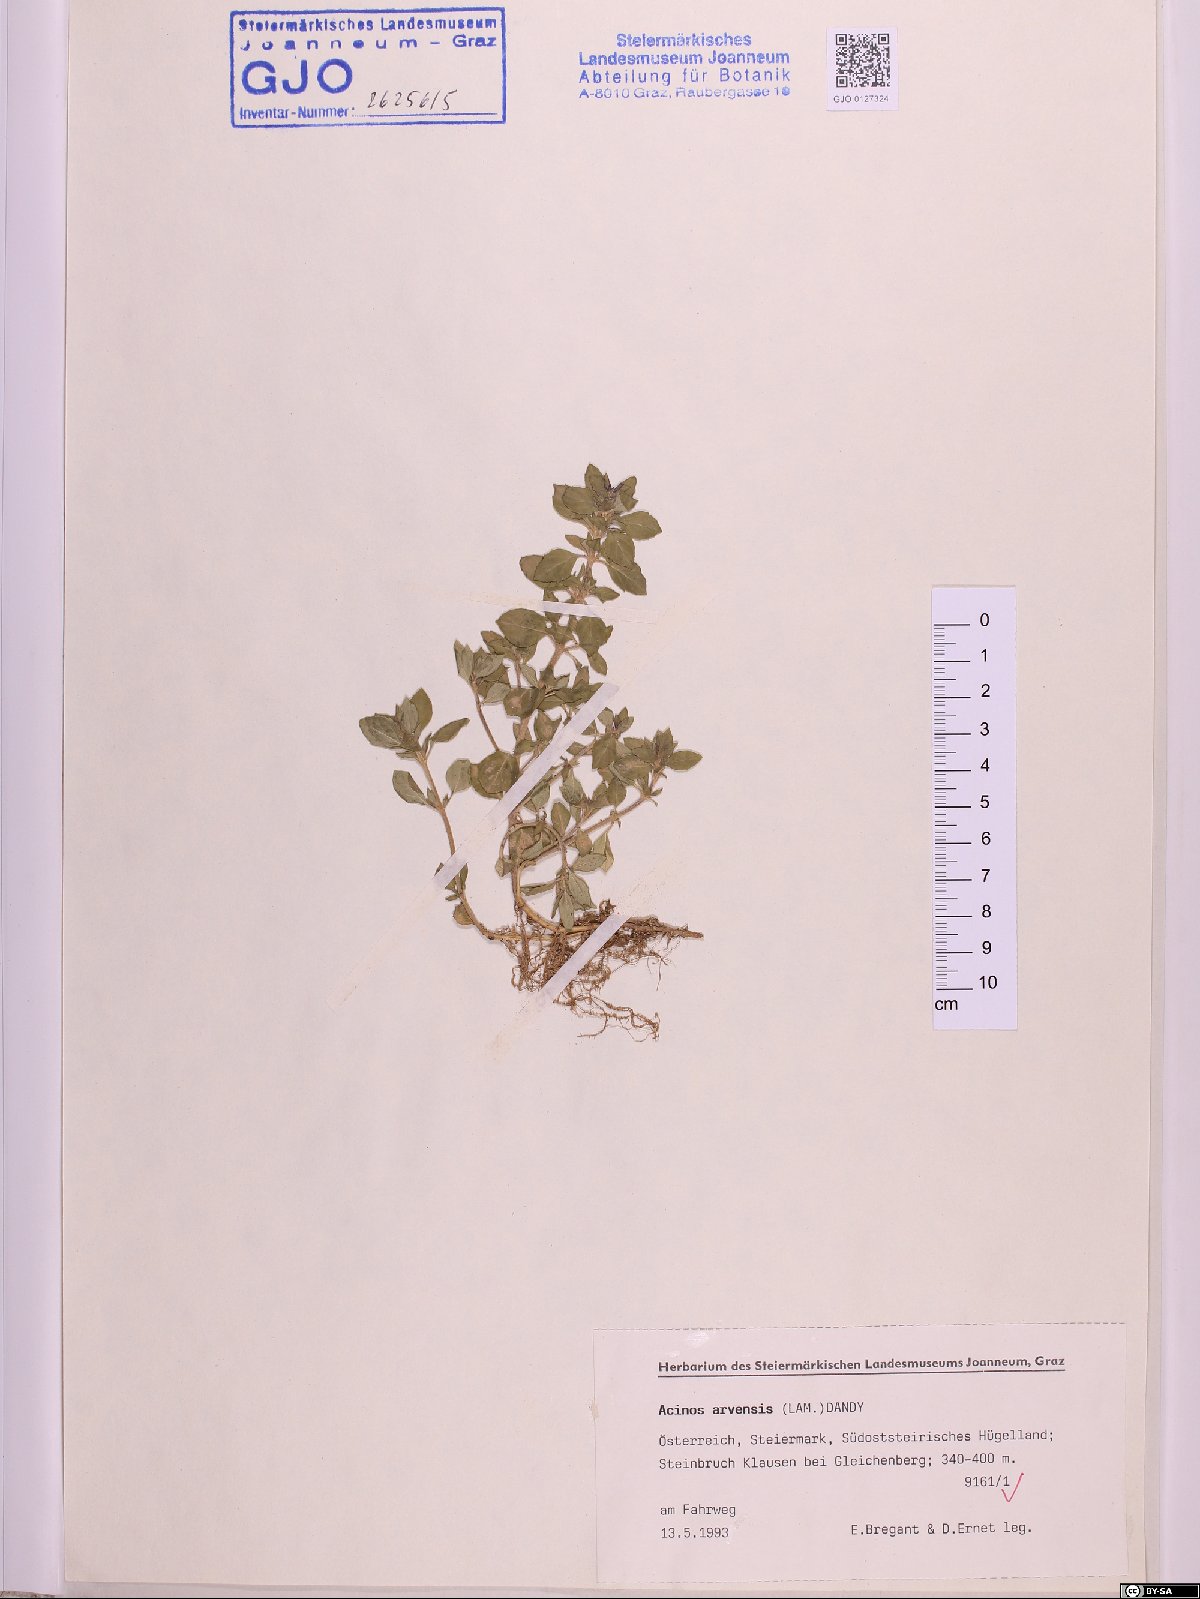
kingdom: Plantae
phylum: Tracheophyta
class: Magnoliopsida
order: Lamiales
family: Lamiaceae
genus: Clinopodium
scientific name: Clinopodium acinos
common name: Basil thyme
